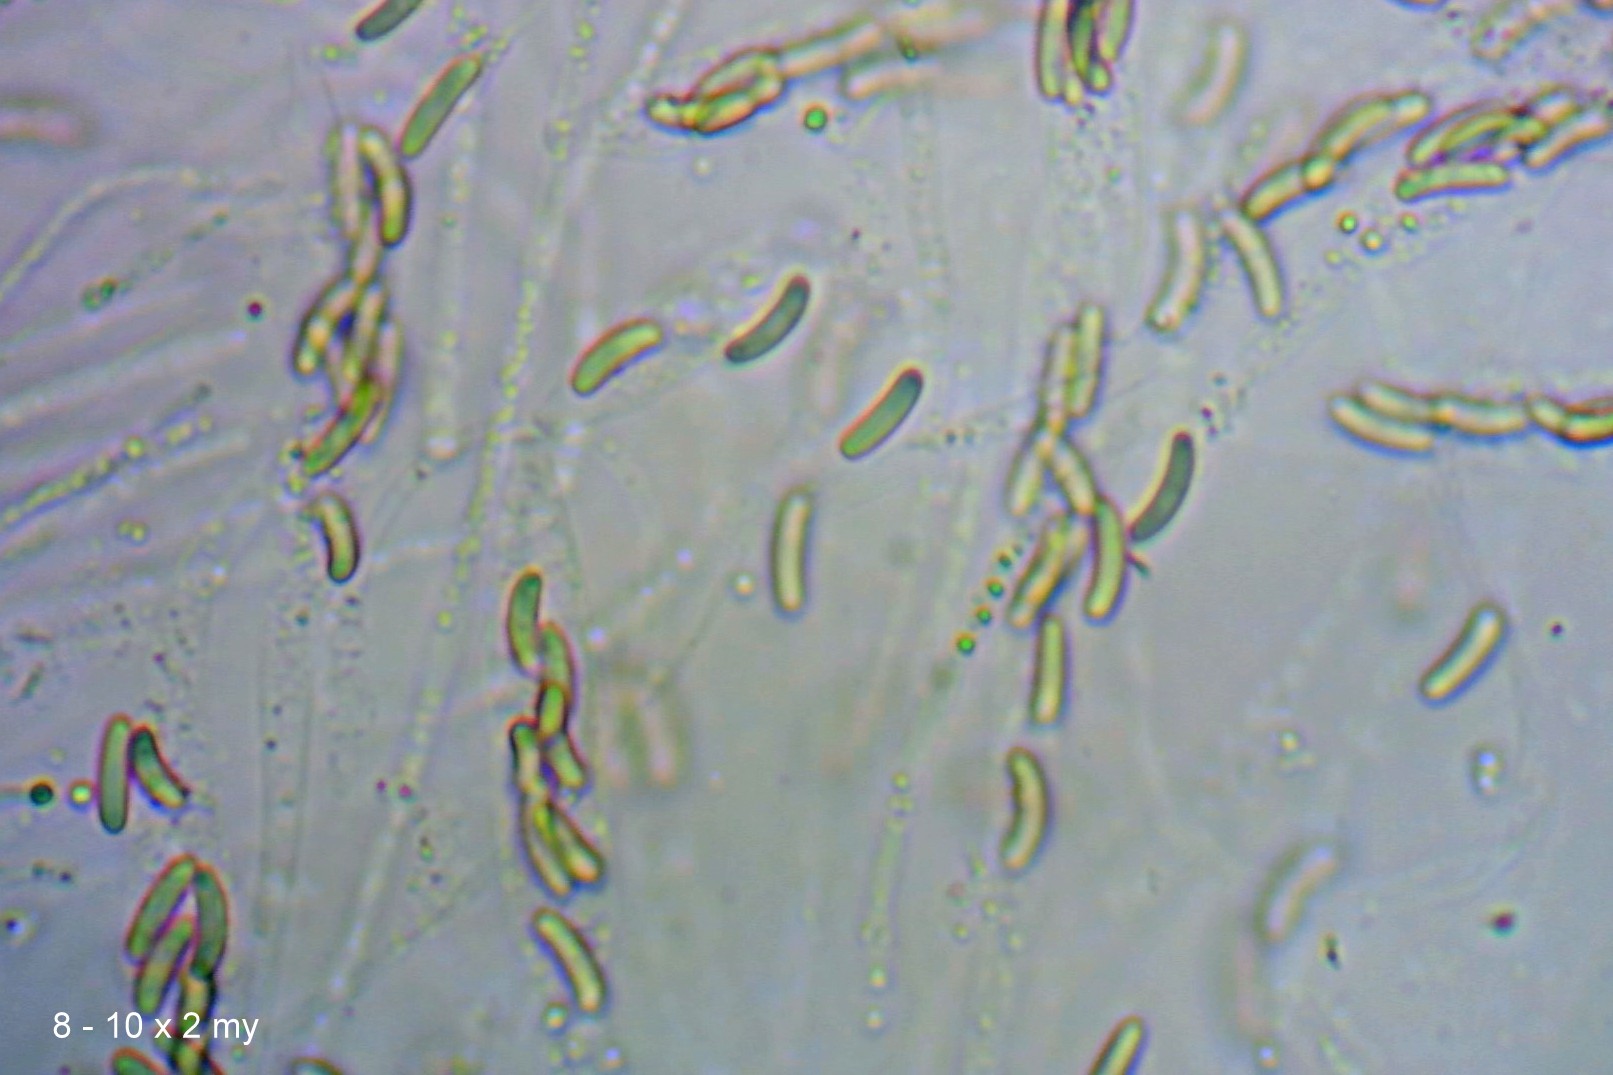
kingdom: Fungi
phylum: Ascomycota
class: Sordariomycetes
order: Diaporthales
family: Valsaceae
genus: Cytospora
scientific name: Cytospora populina
